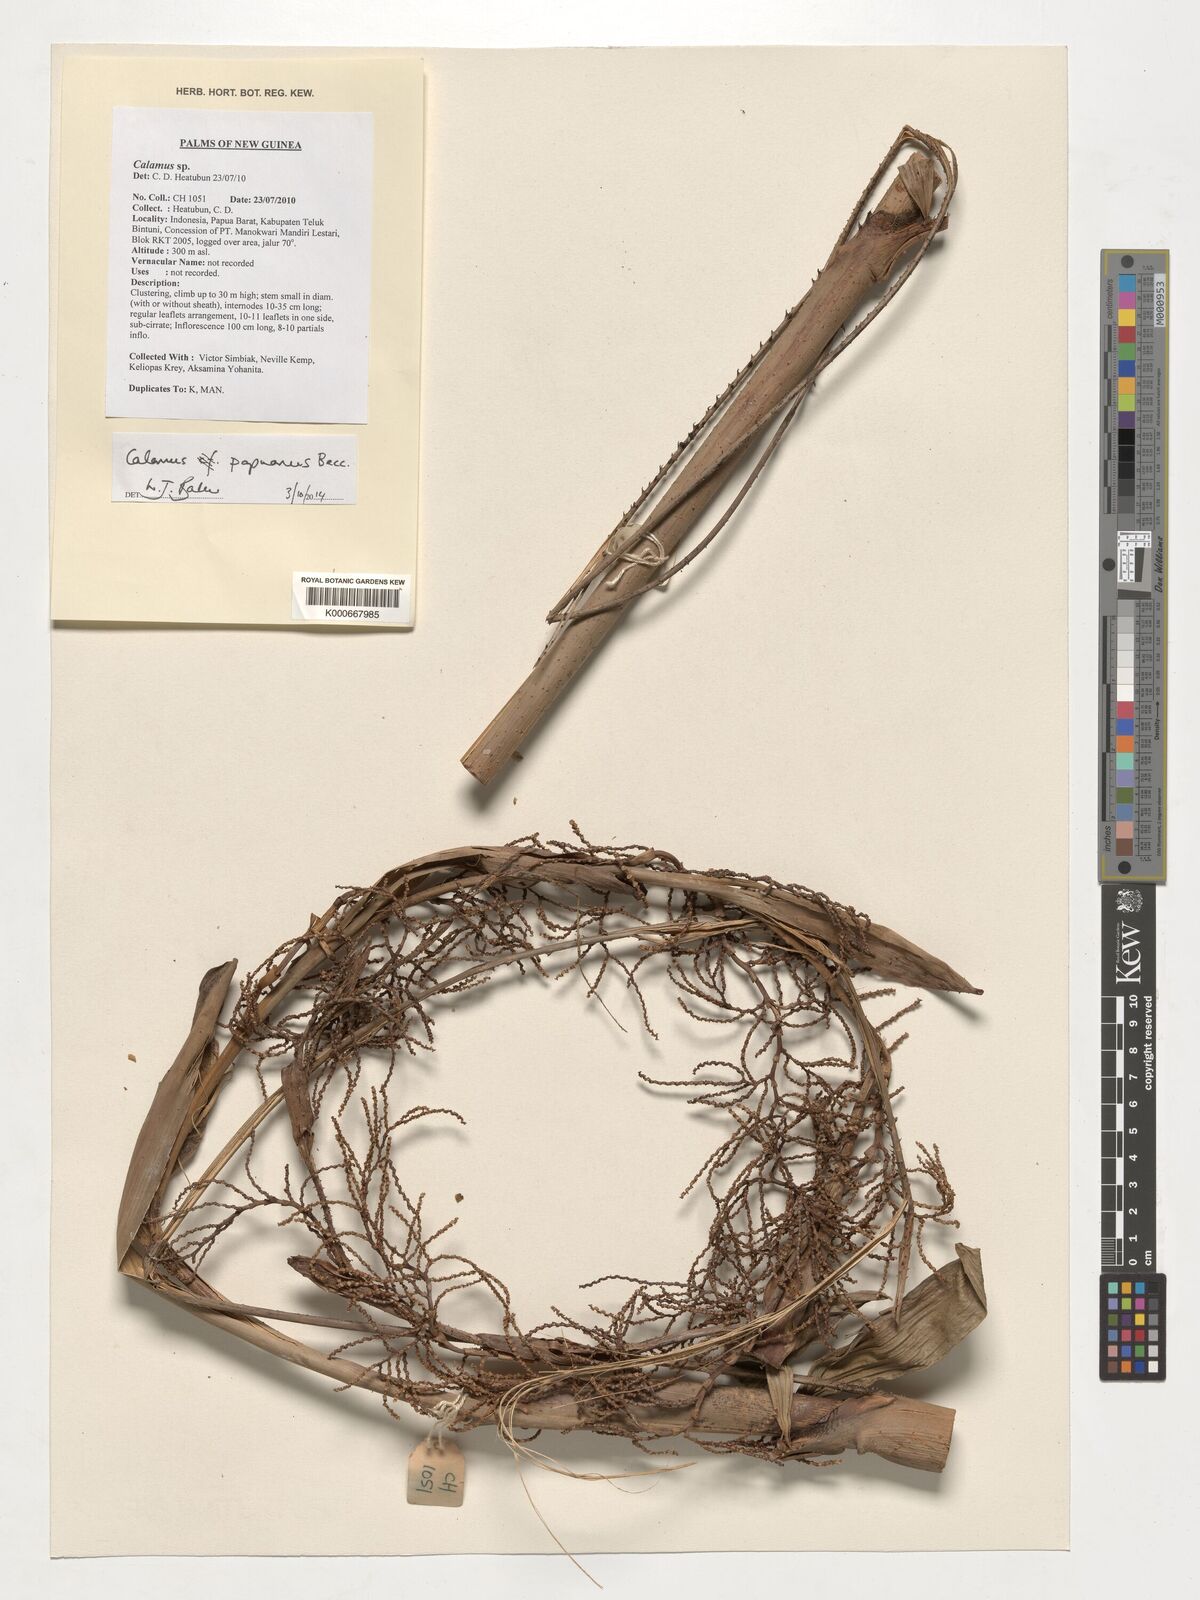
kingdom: Plantae
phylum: Tracheophyta
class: Liliopsida
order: Arecales
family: Arecaceae
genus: Calamus
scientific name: Calamus papuanus
